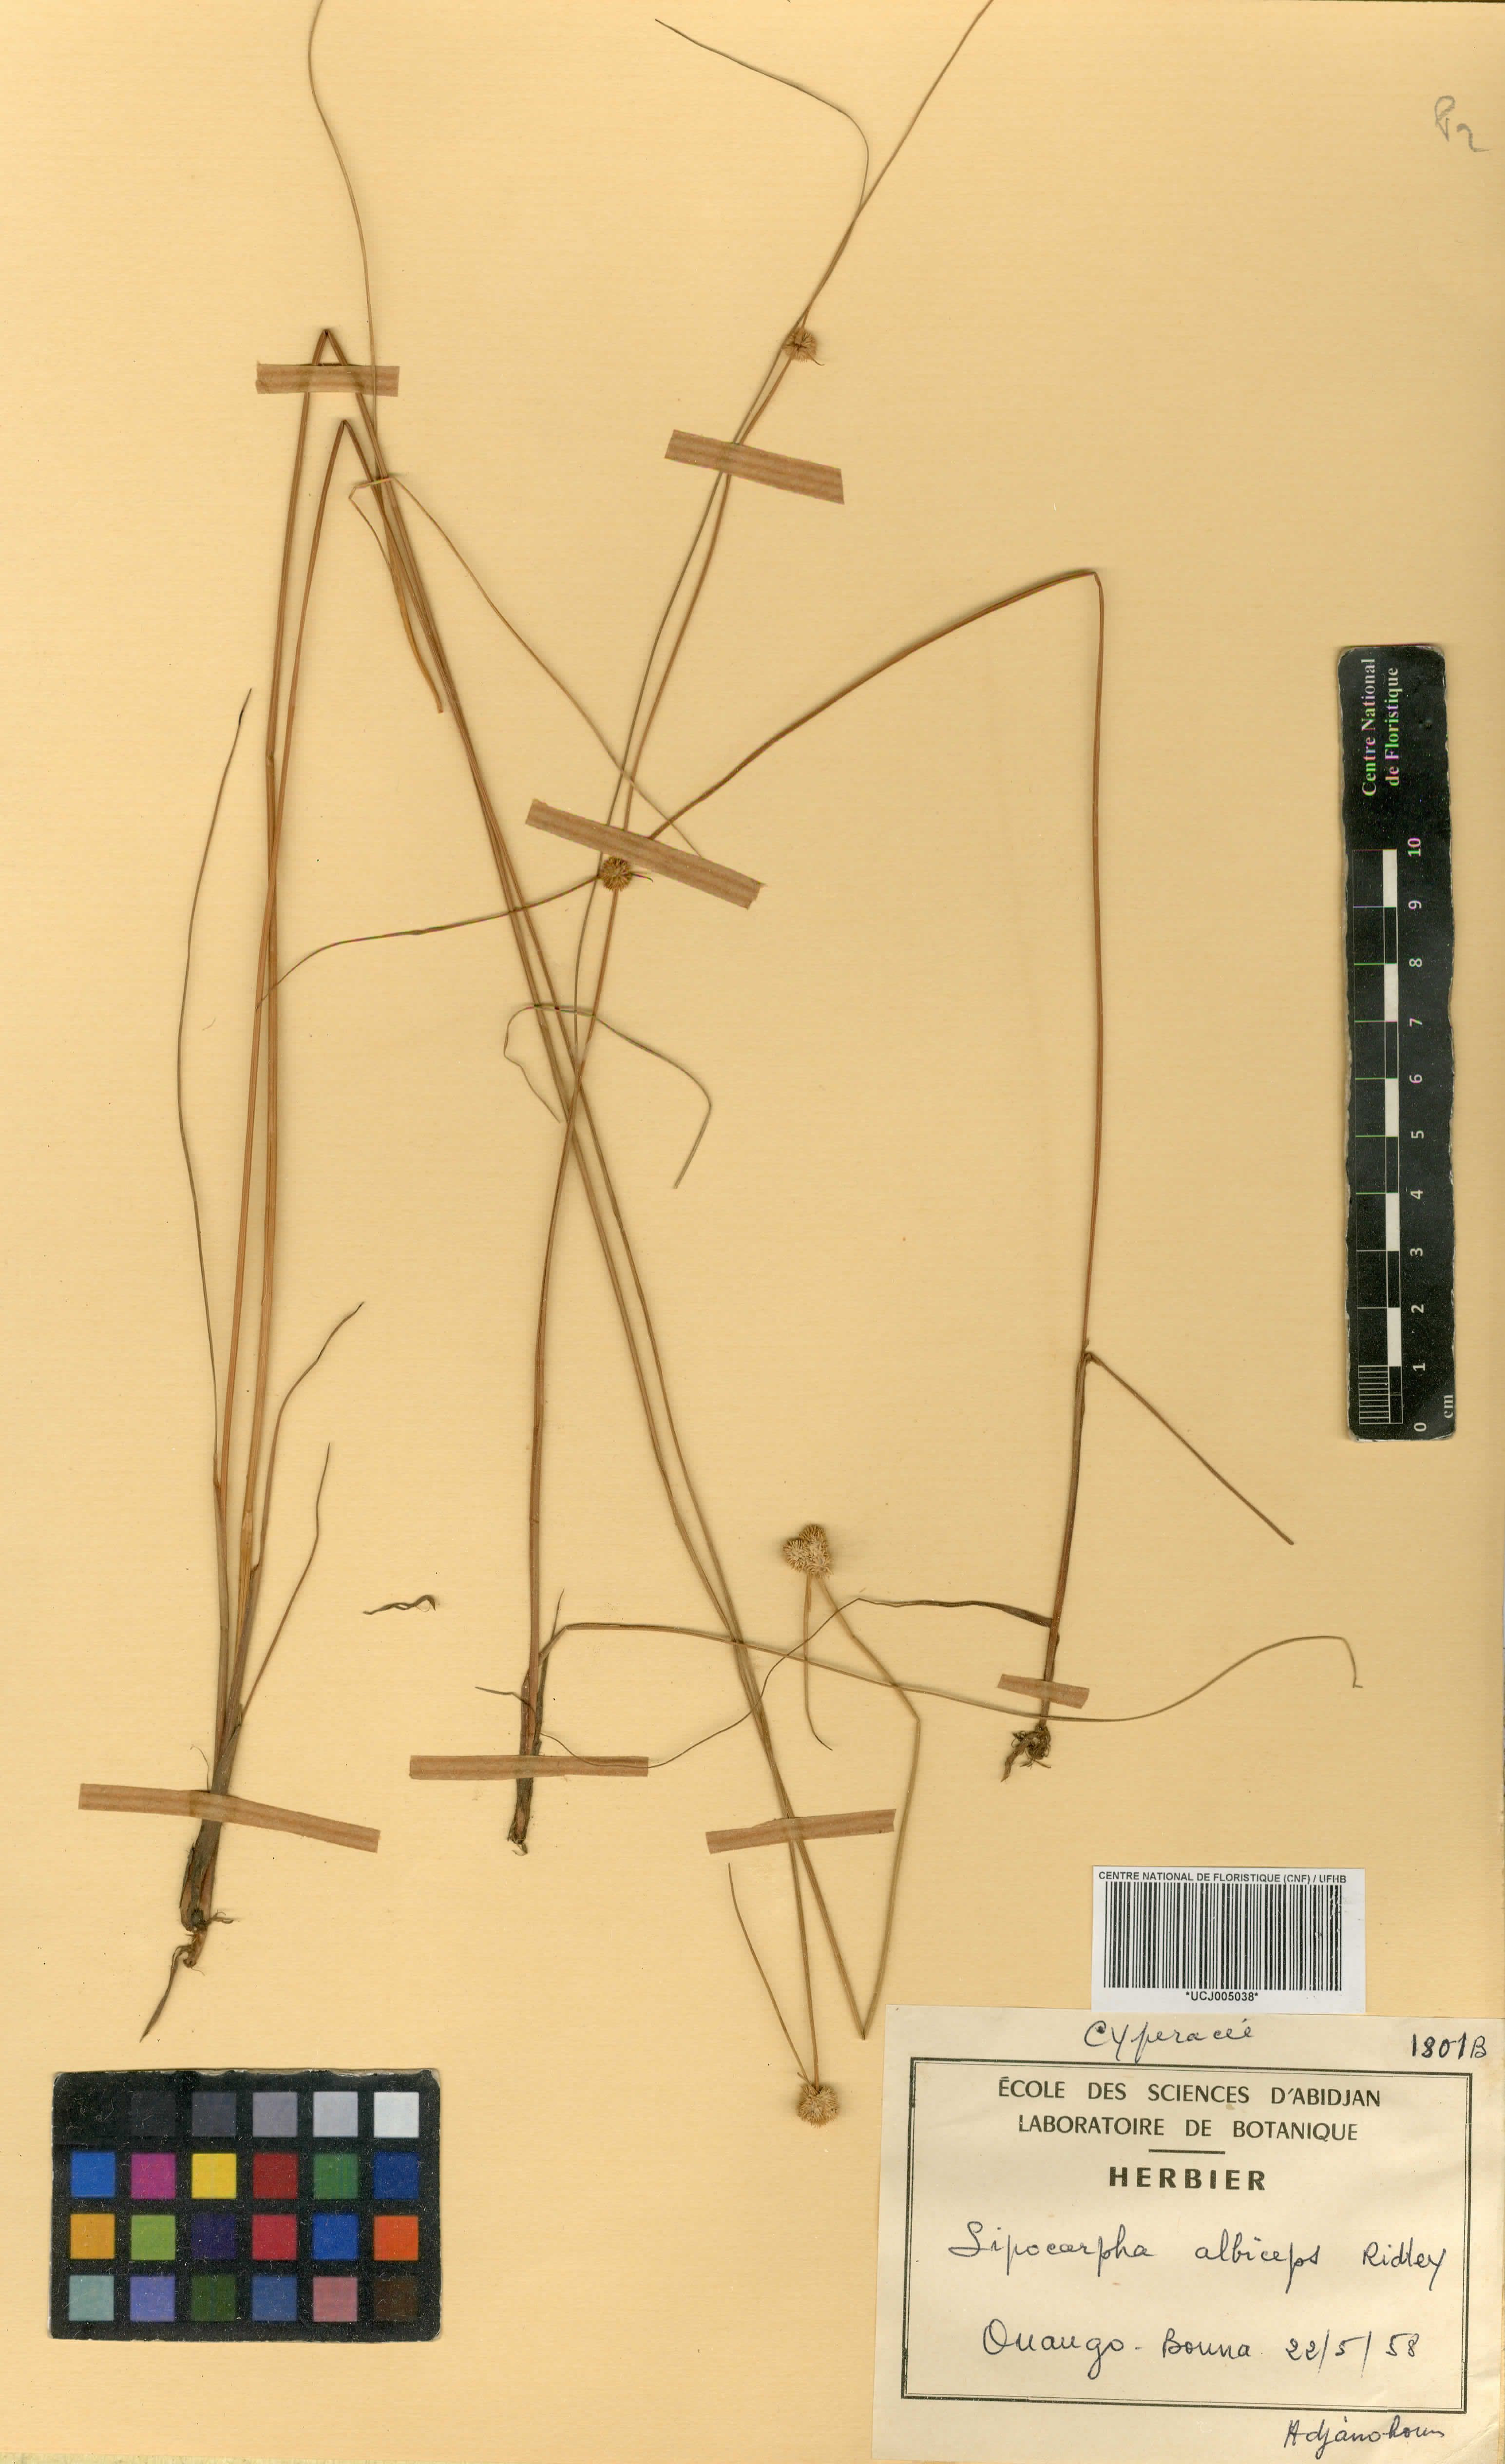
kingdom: Plantae
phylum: Tracheophyta
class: Liliopsida
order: Poales
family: Cyperaceae
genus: Cyperus
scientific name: Cyperus purpureoluteus
